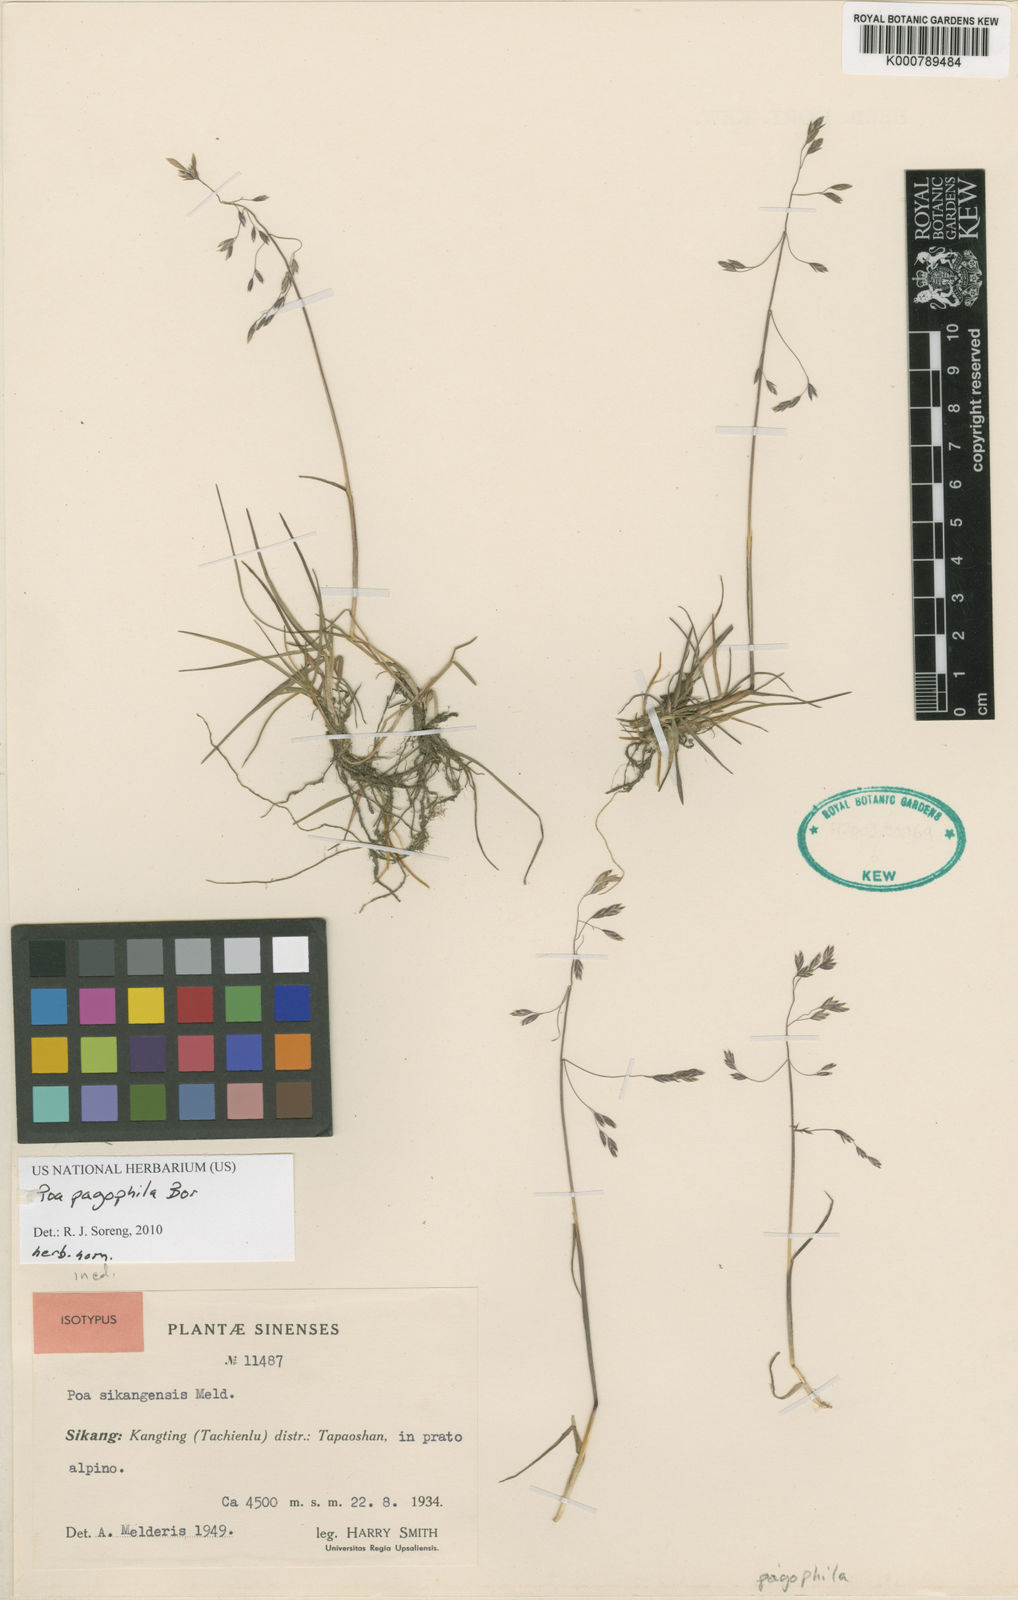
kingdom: Plantae
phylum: Tracheophyta
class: Liliopsida
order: Poales
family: Poaceae
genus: Poa
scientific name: Poa pagophila
